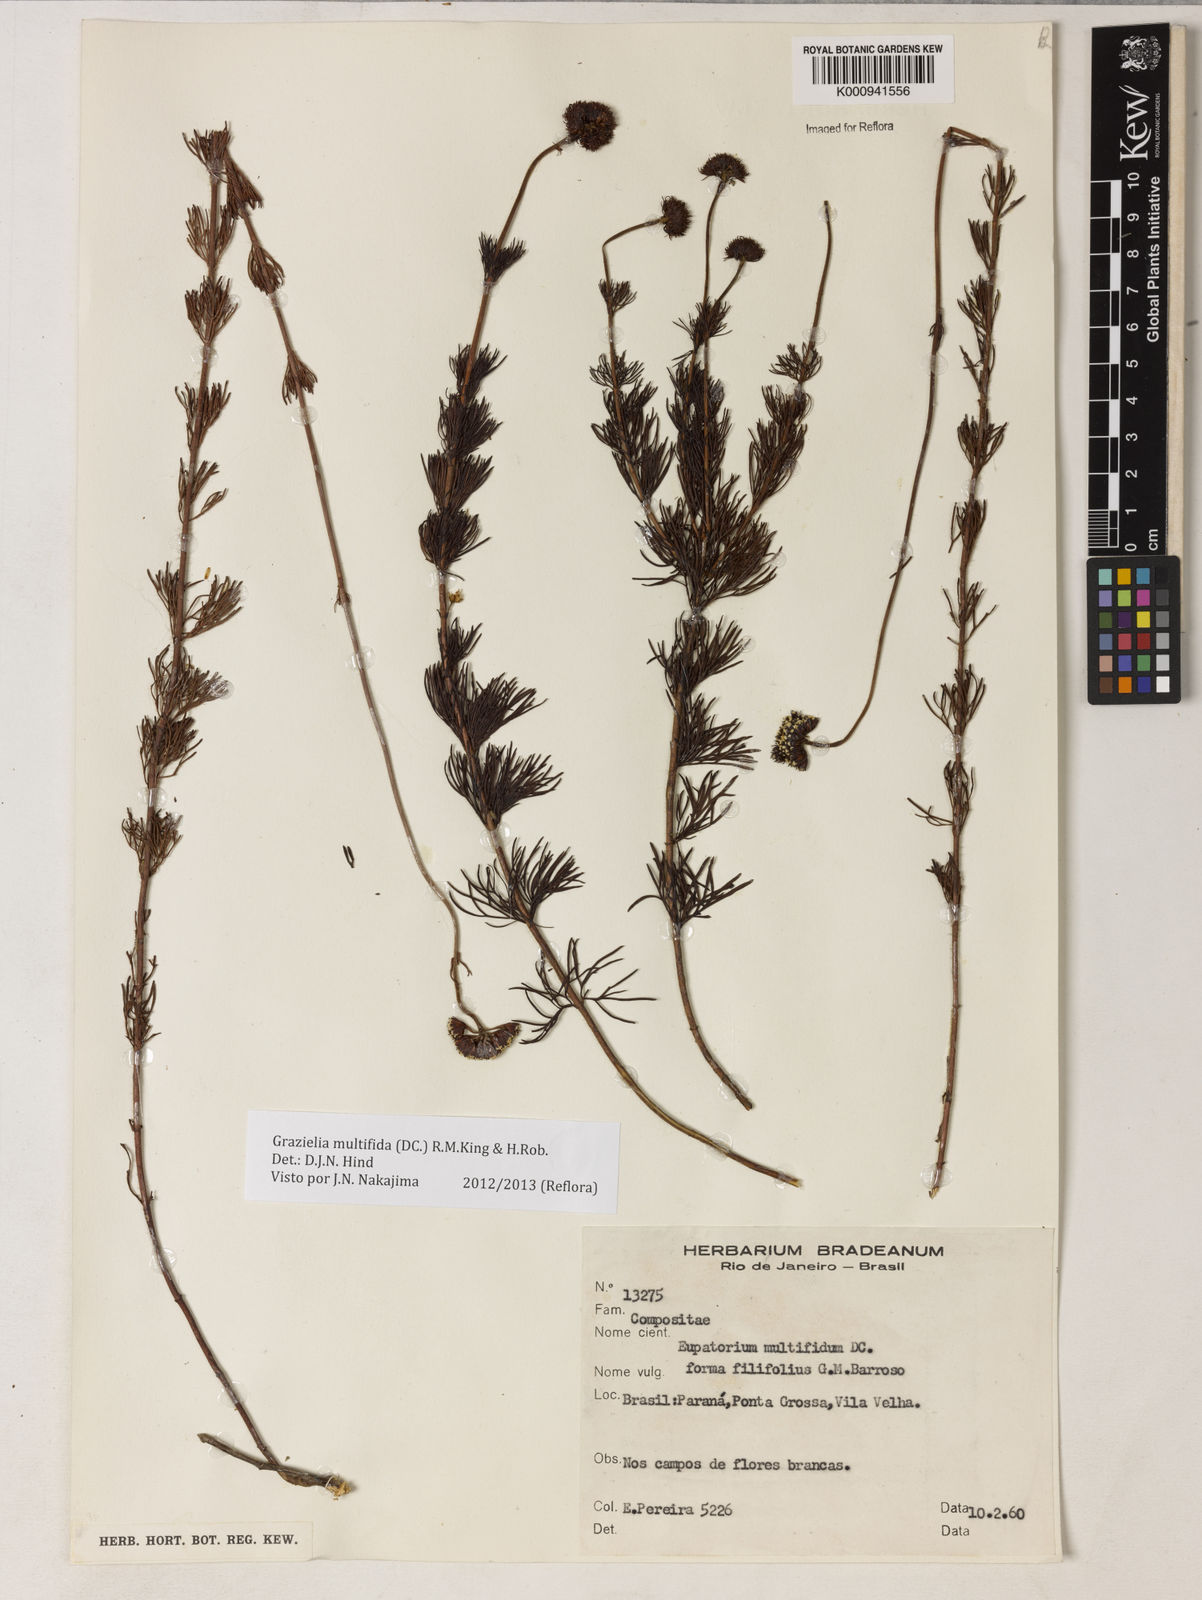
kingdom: Plantae
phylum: Tracheophyta
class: Magnoliopsida
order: Asterales
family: Asteraceae
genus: Grazielia
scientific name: Grazielia multifida
